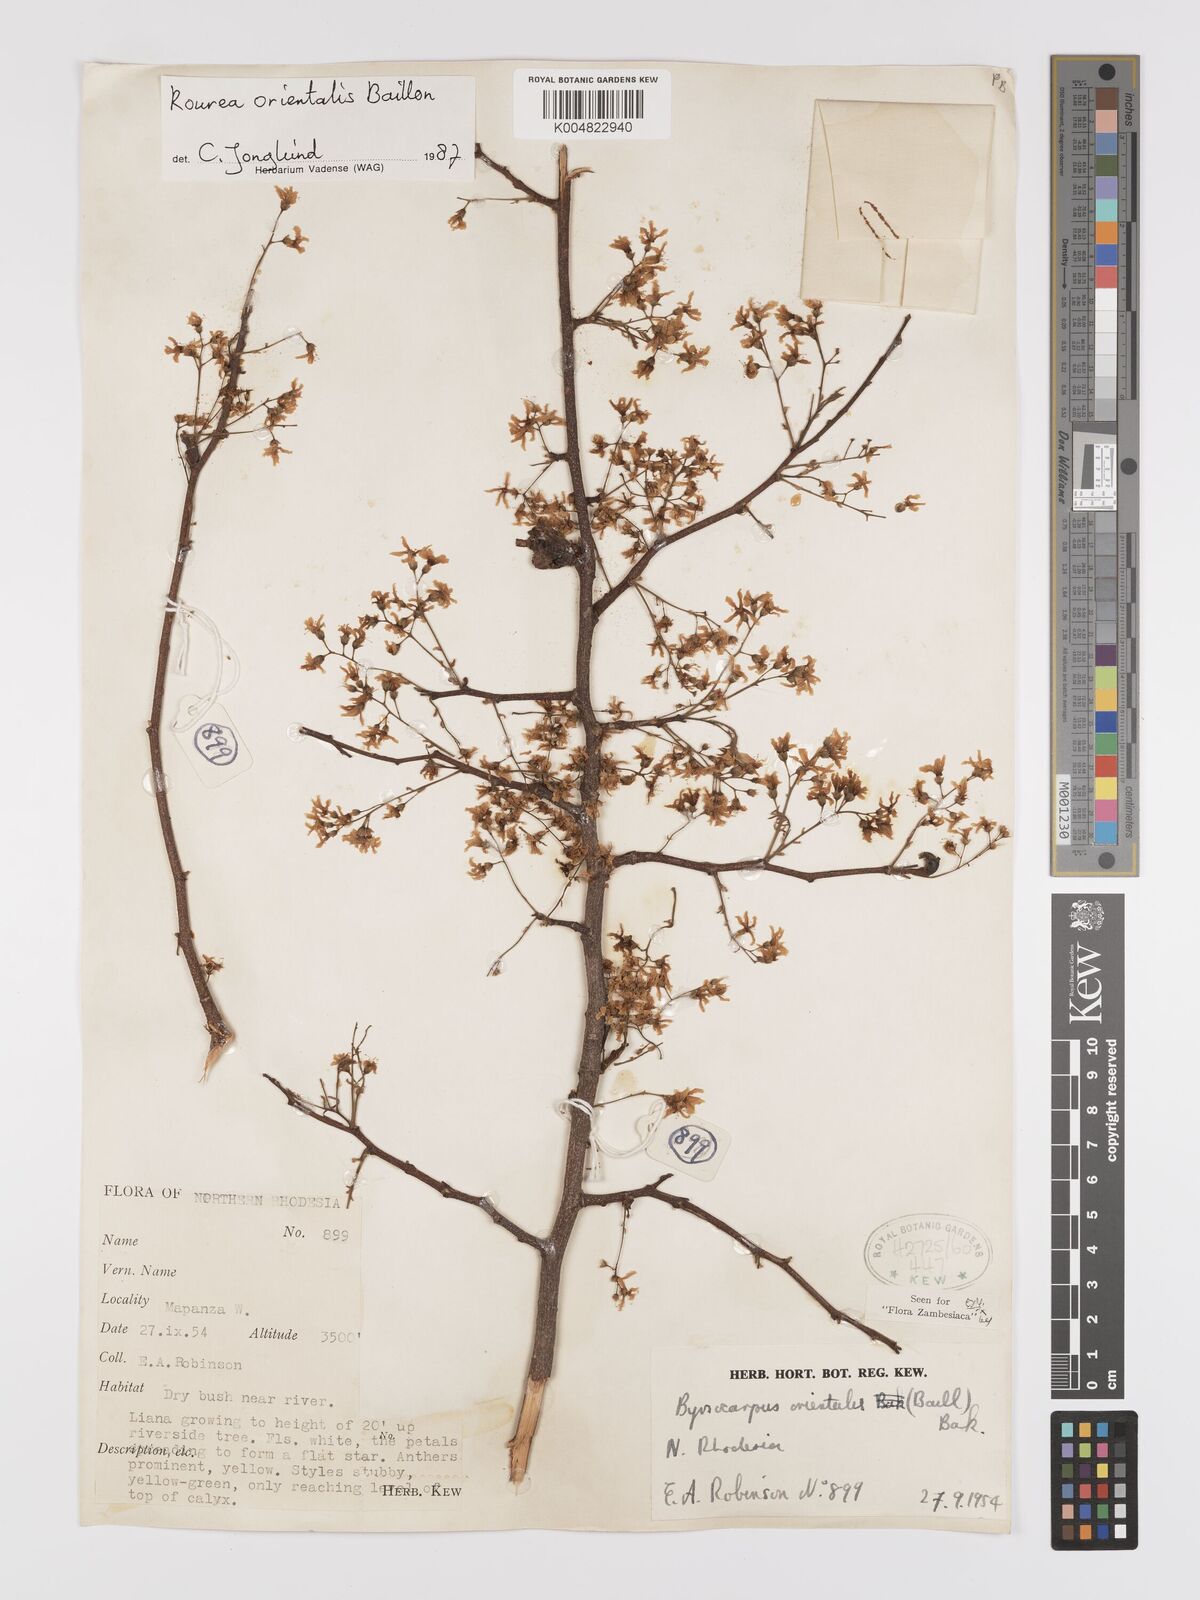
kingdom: Plantae
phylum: Tracheophyta
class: Magnoliopsida
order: Oxalidales
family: Connaraceae
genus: Rourea
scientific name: Rourea orientalis
